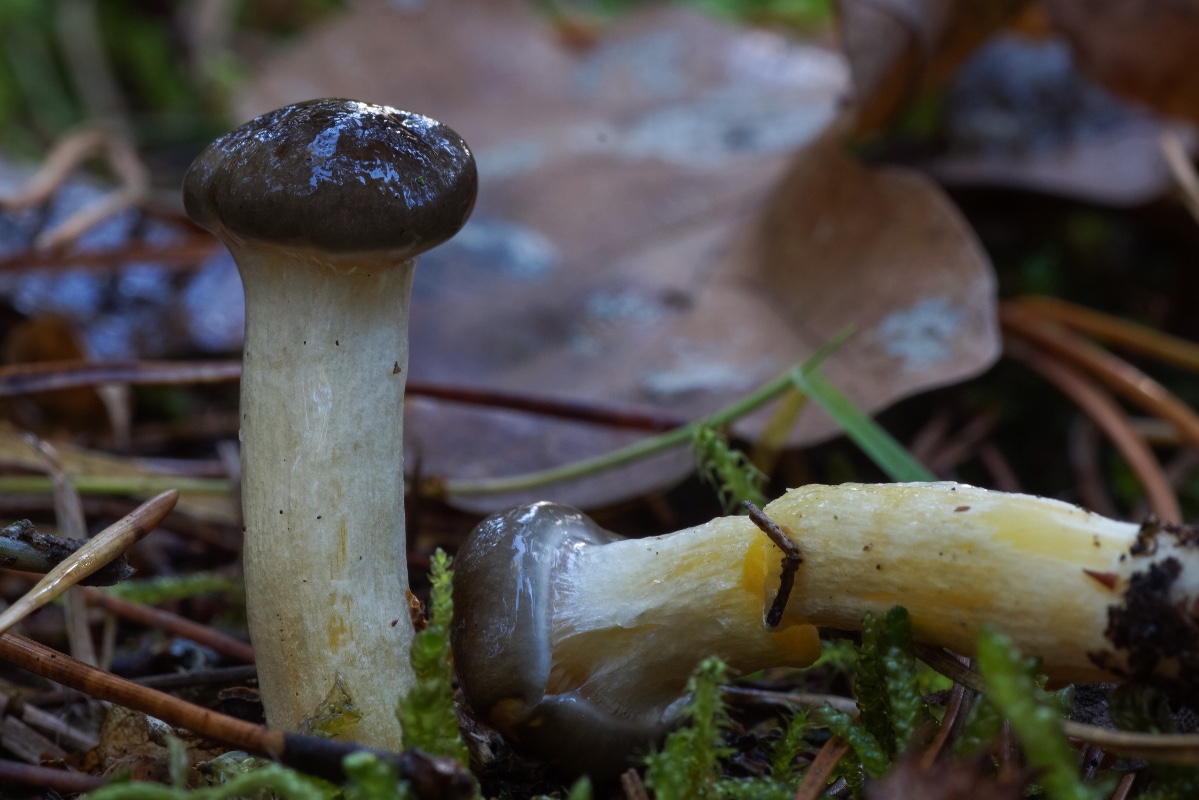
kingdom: Fungi
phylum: Basidiomycota
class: Agaricomycetes
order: Agaricales
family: Hygrophoraceae
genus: Hygrophorus
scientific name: Hygrophorus hypothejus
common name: frost-sneglehat
